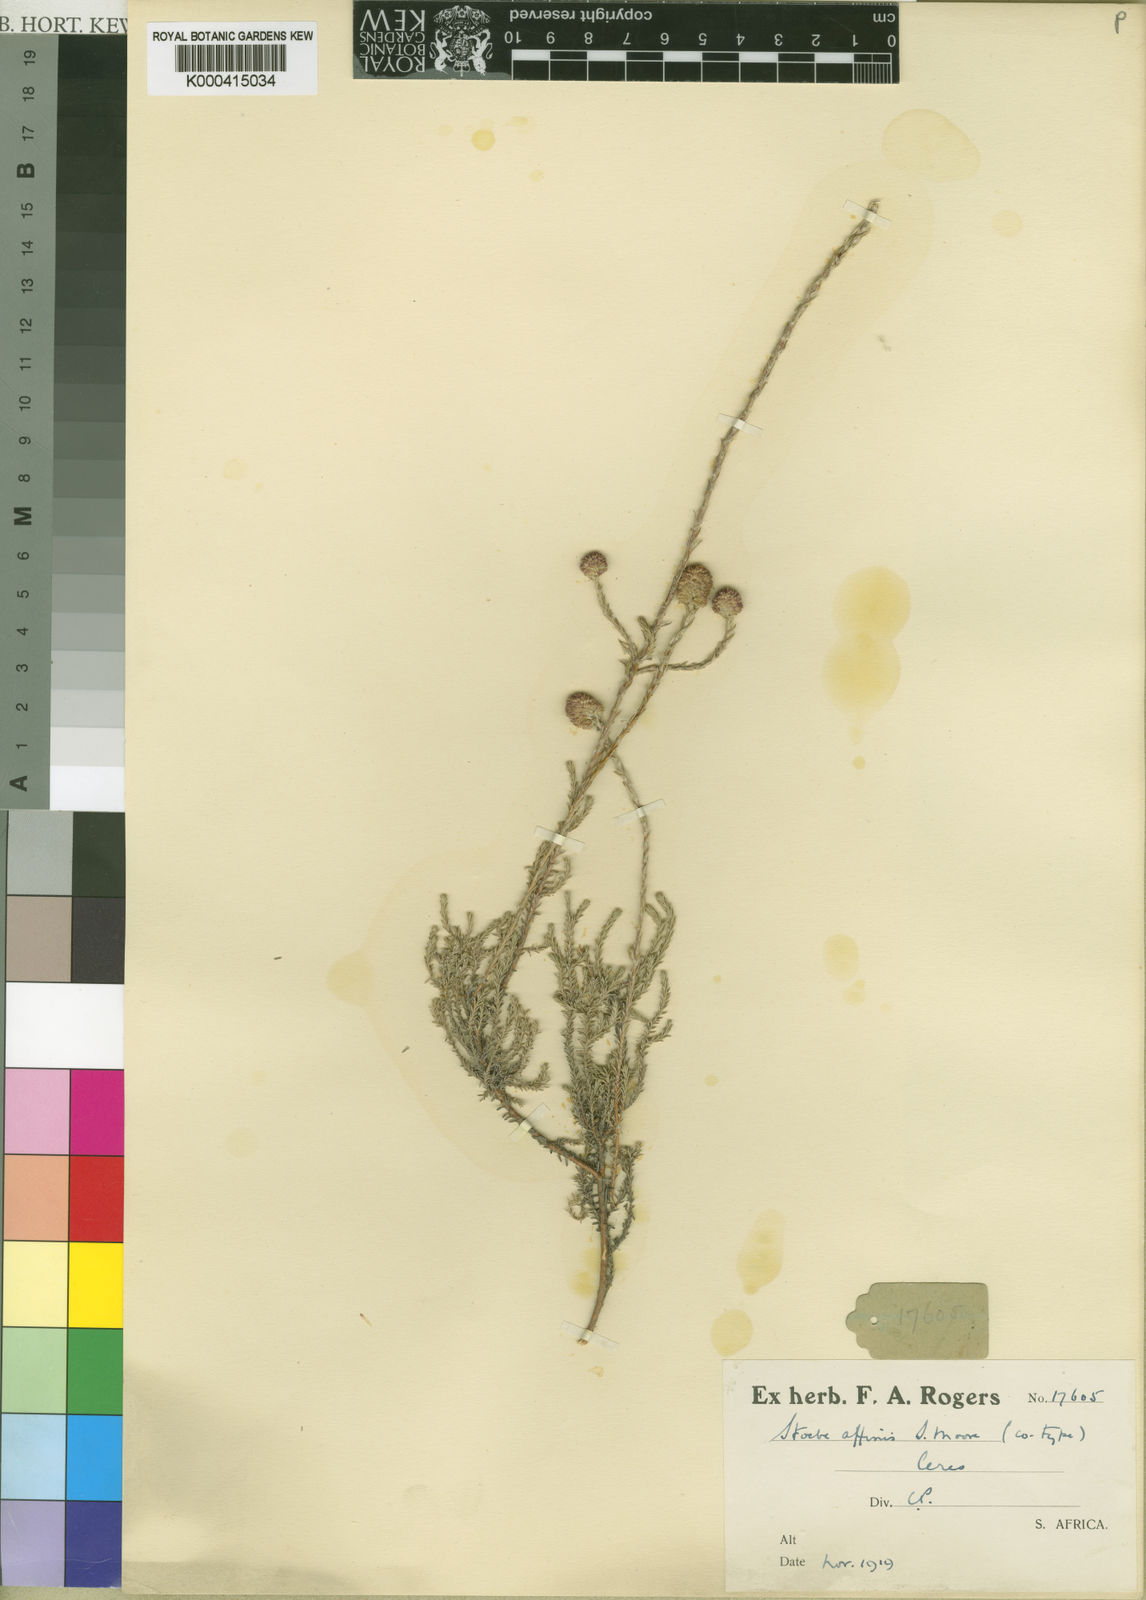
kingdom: Plantae
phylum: Tracheophyta
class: Magnoliopsida
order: Asterales
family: Asteraceae
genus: Stoebe
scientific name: Stoebe capitata
